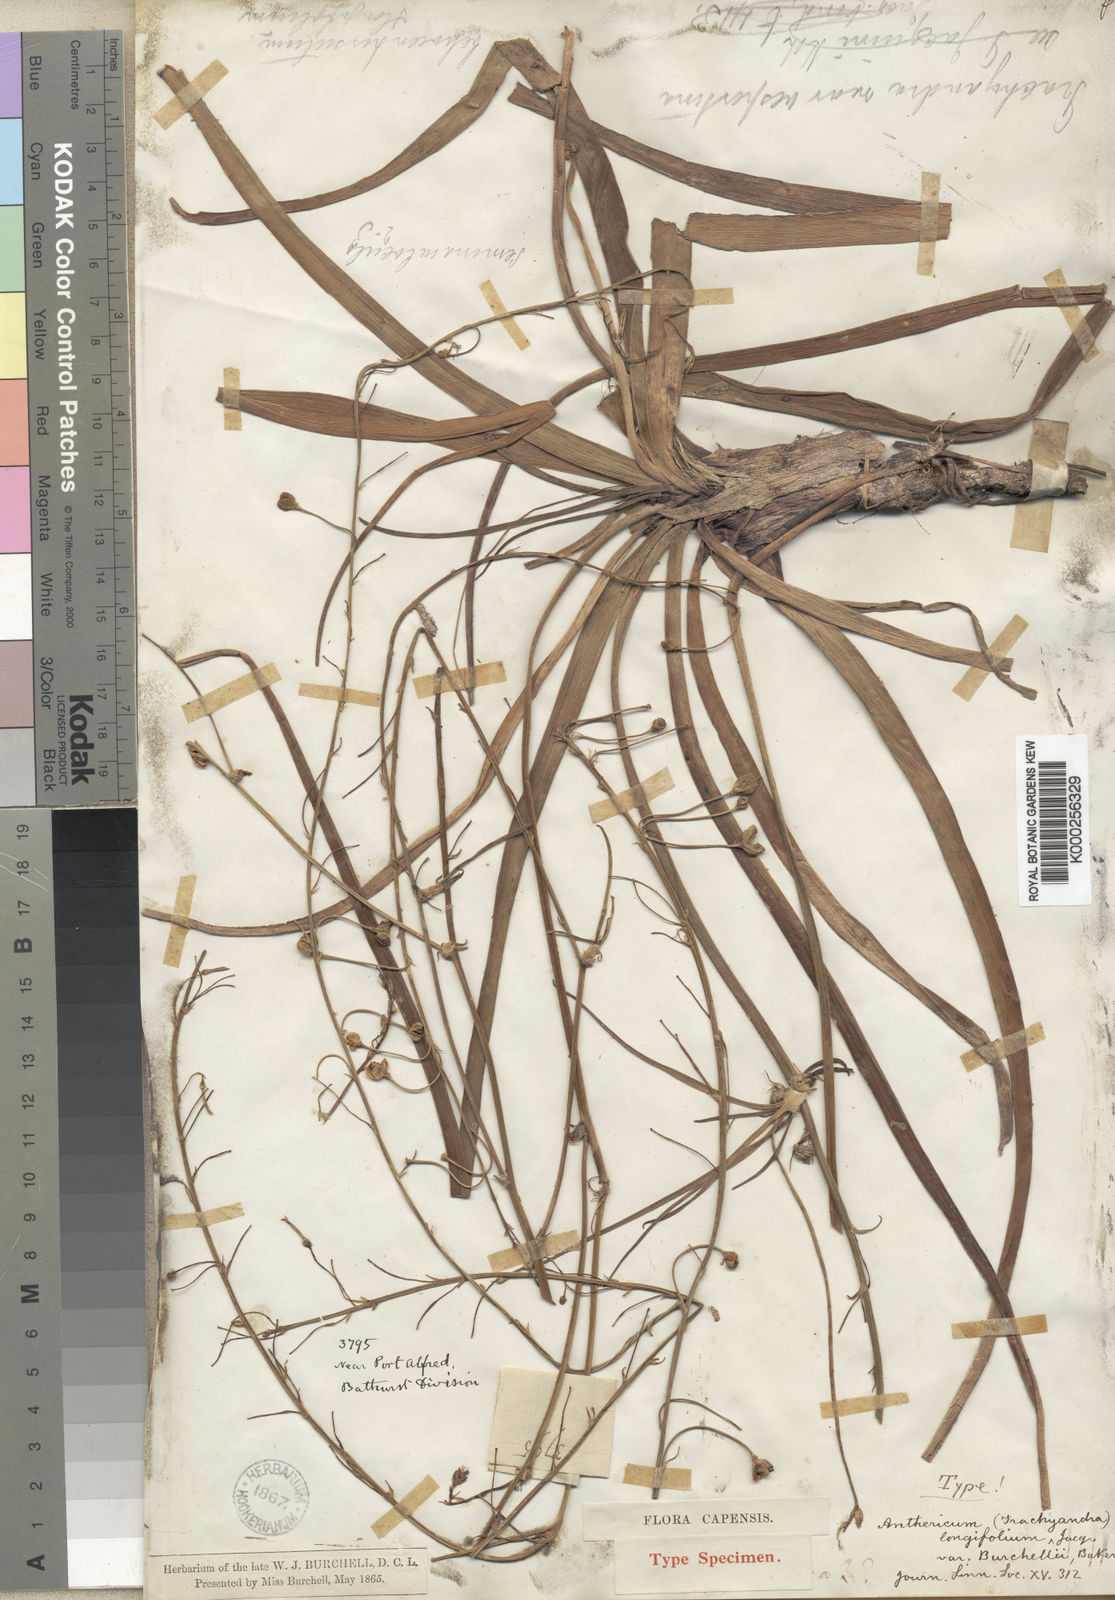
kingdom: Plantae
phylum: Tracheophyta
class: Liliopsida
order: Asparagales
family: Asphodelaceae
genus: Trachyandra
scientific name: Trachyandra affinis
